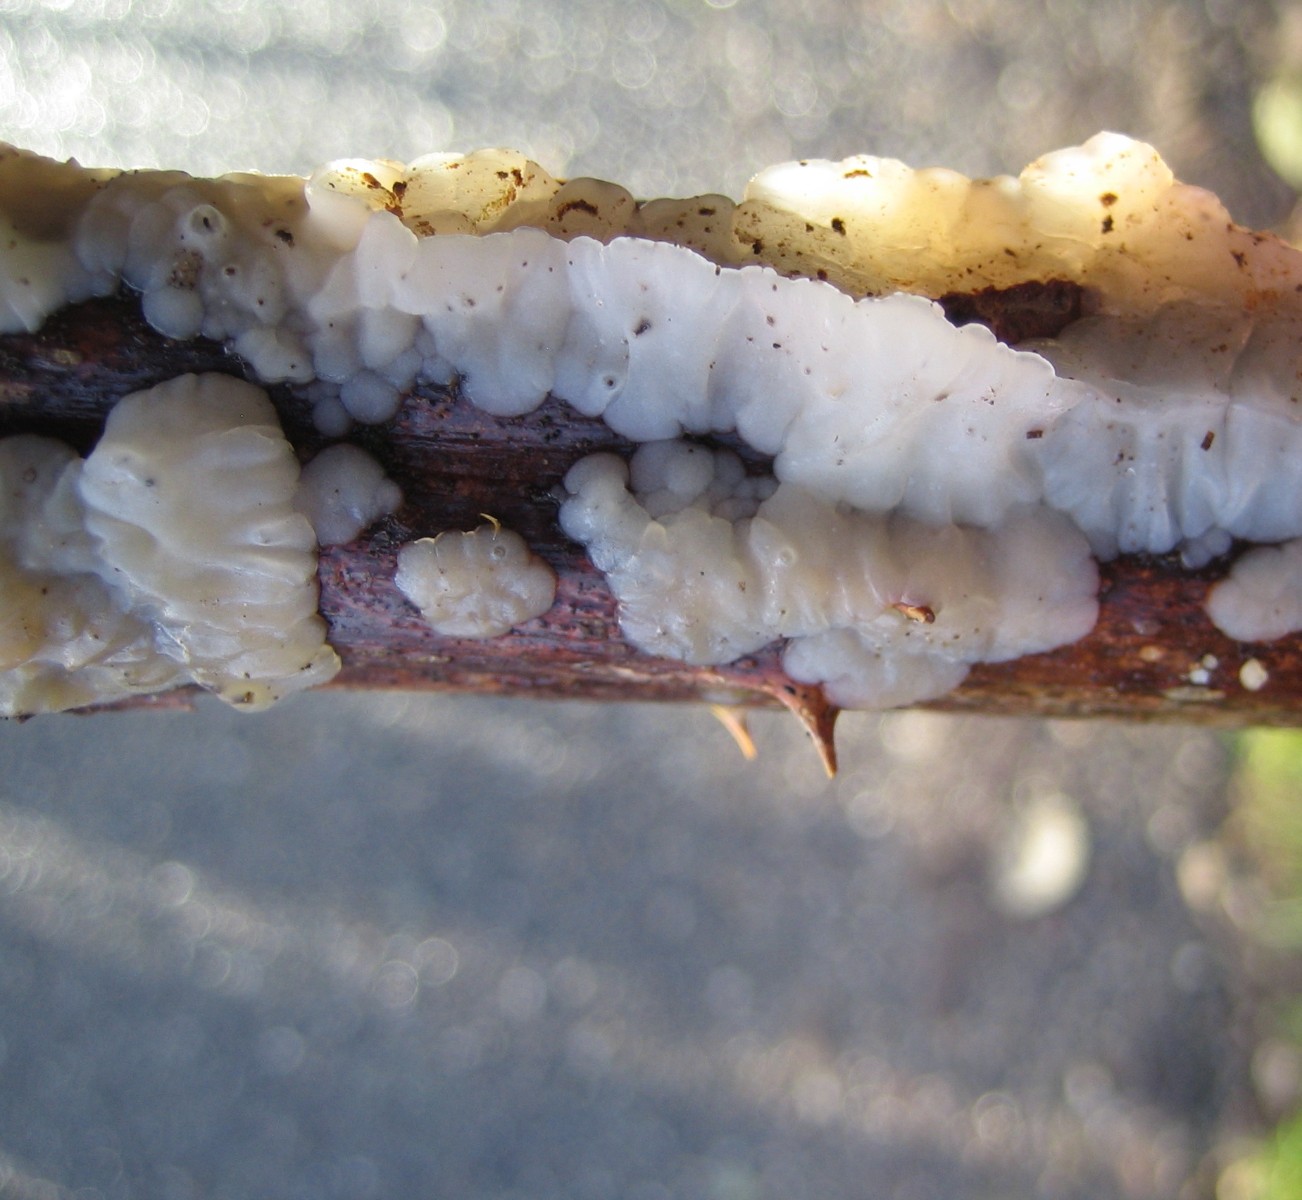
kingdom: Fungi
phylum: Basidiomycota
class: Agaricomycetes
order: Auriculariales
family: Auriculariaceae
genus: Exidia
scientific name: Exidia thuretiana
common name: hvidlig bævretop
